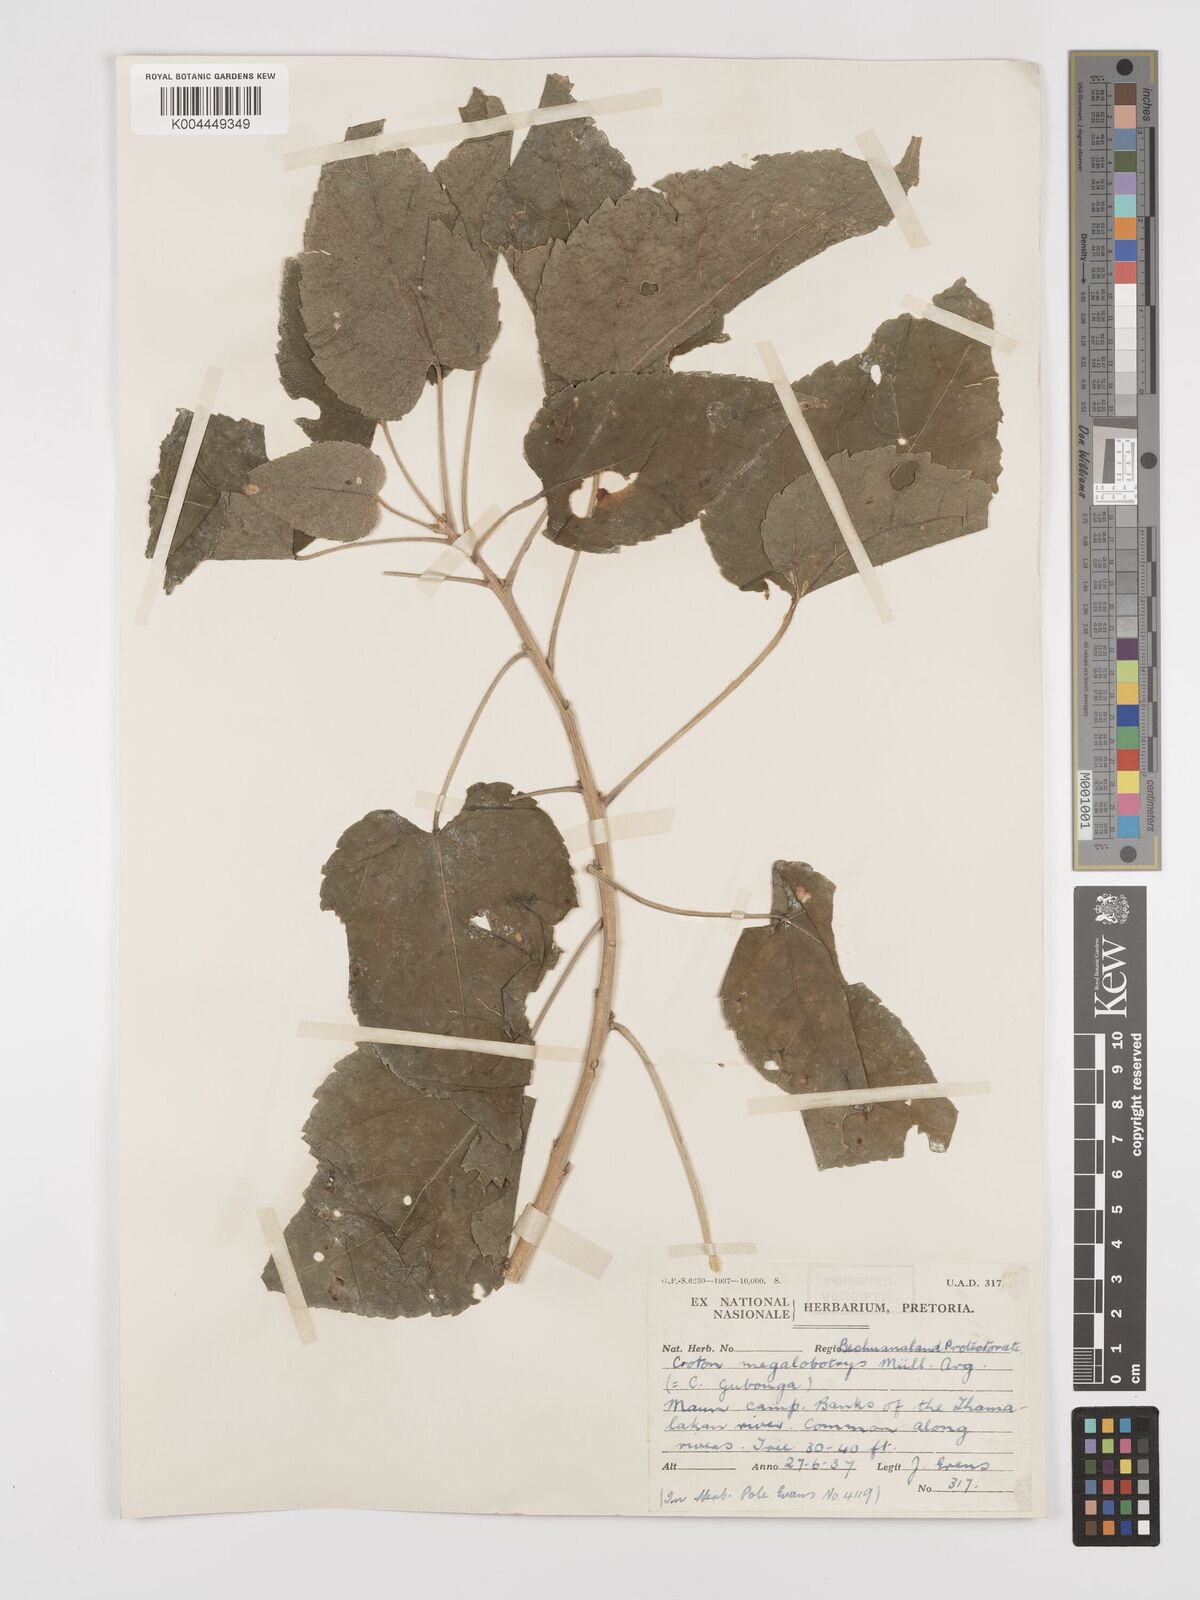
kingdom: Plantae
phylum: Tracheophyta
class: Magnoliopsida
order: Malpighiales
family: Euphorbiaceae
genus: Croton
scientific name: Croton megalobotrys
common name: Large fever berry
